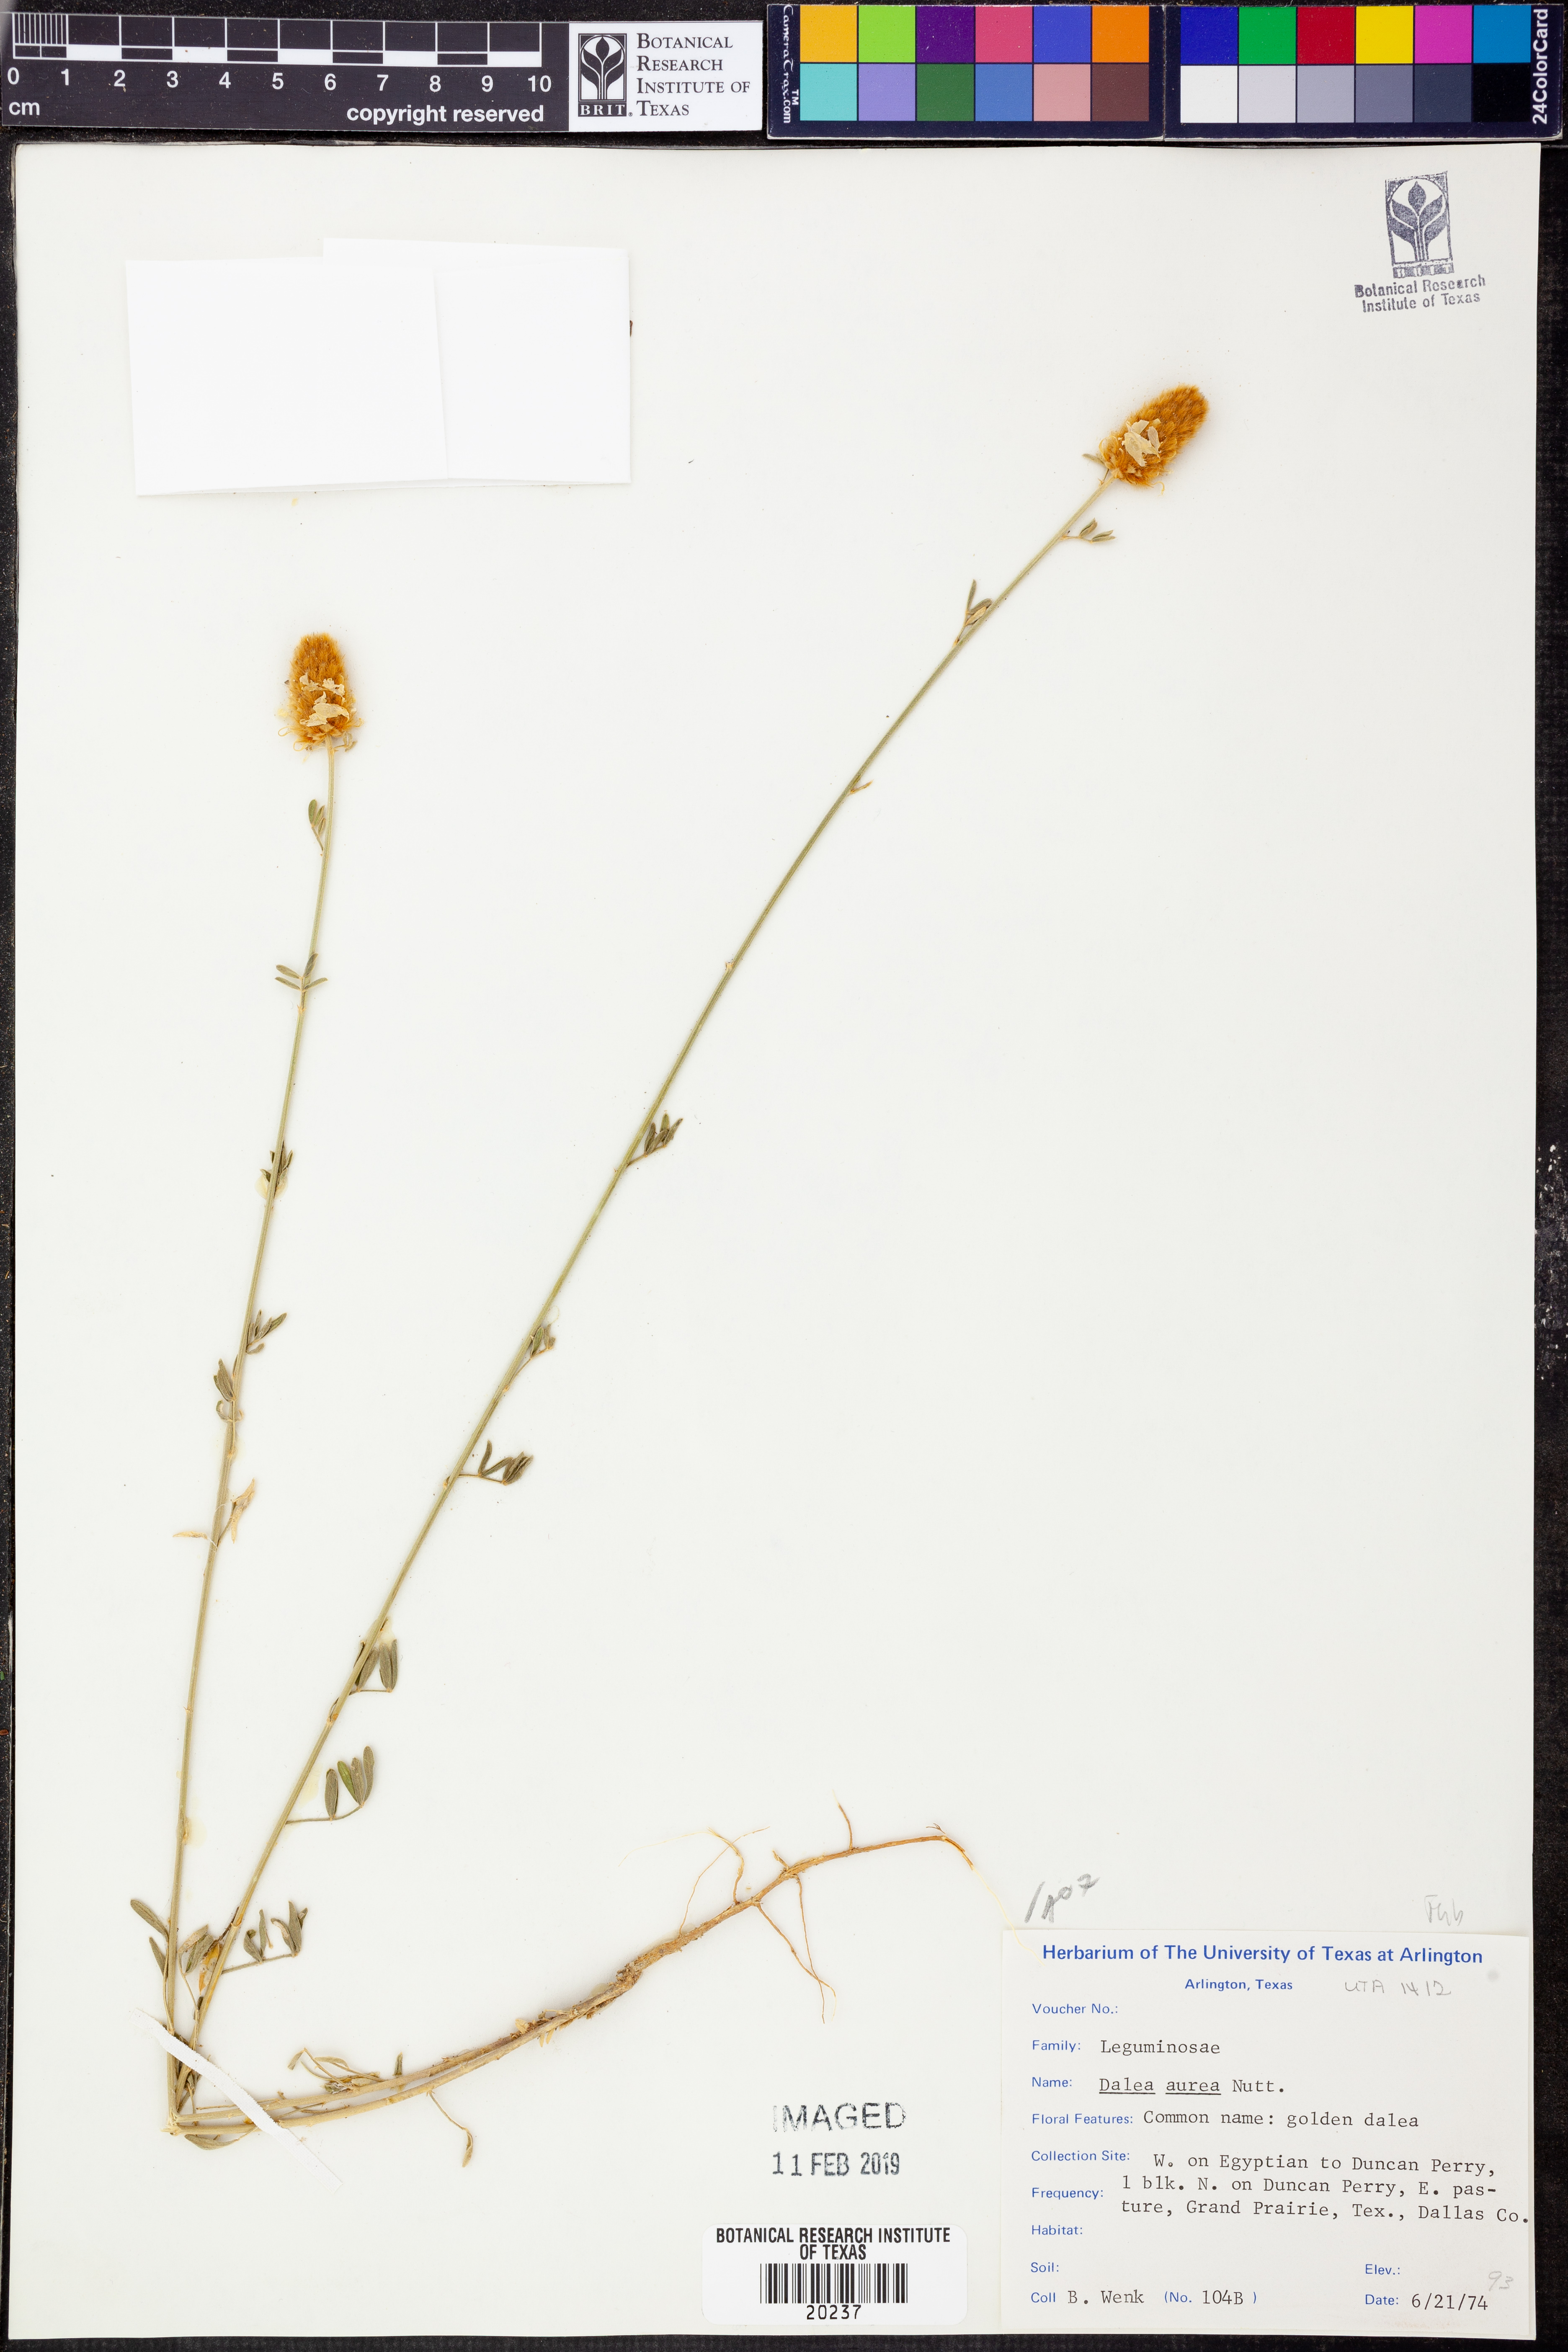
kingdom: Plantae
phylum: Tracheophyta
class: Magnoliopsida
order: Fabales
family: Fabaceae
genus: Dalea
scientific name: Dalea aurea
